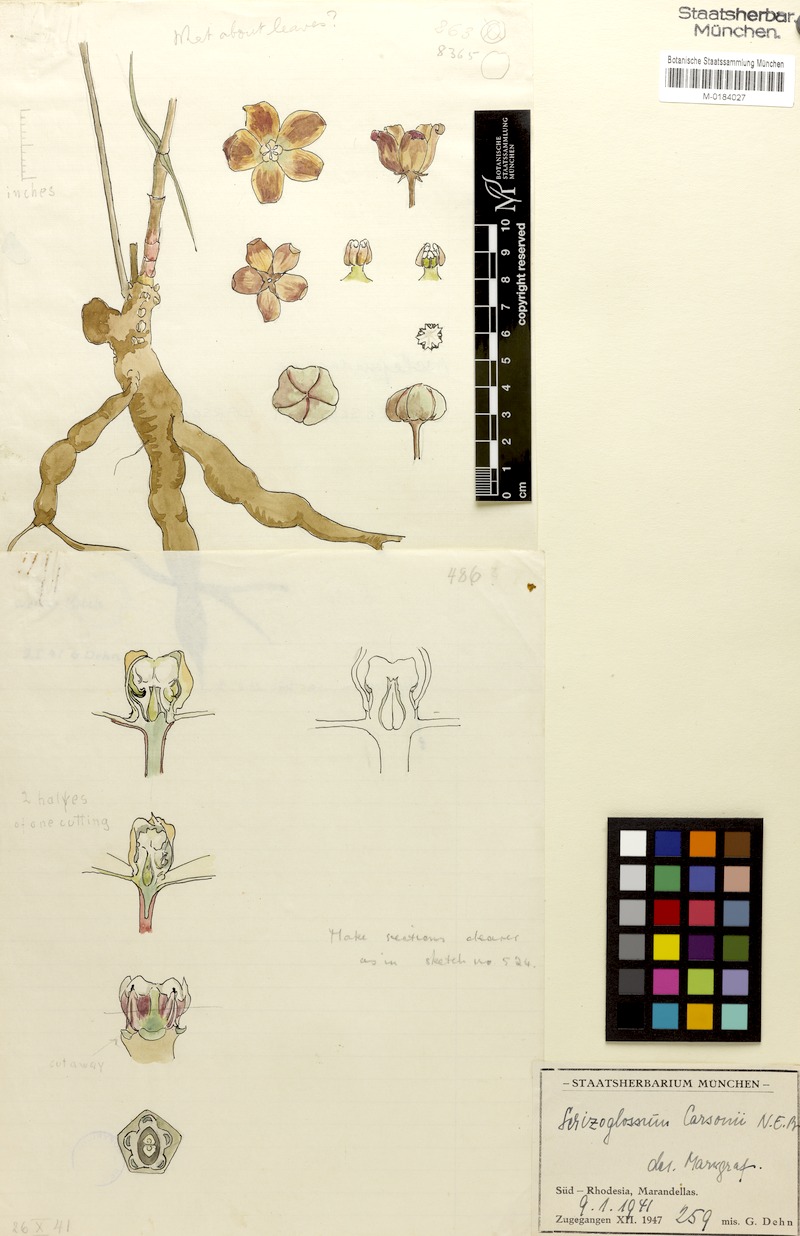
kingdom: Plantae
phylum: Tracheophyta
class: Magnoliopsida
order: Gentianales
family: Apocynaceae
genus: Glossostelma
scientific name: Glossostelma carsonii
